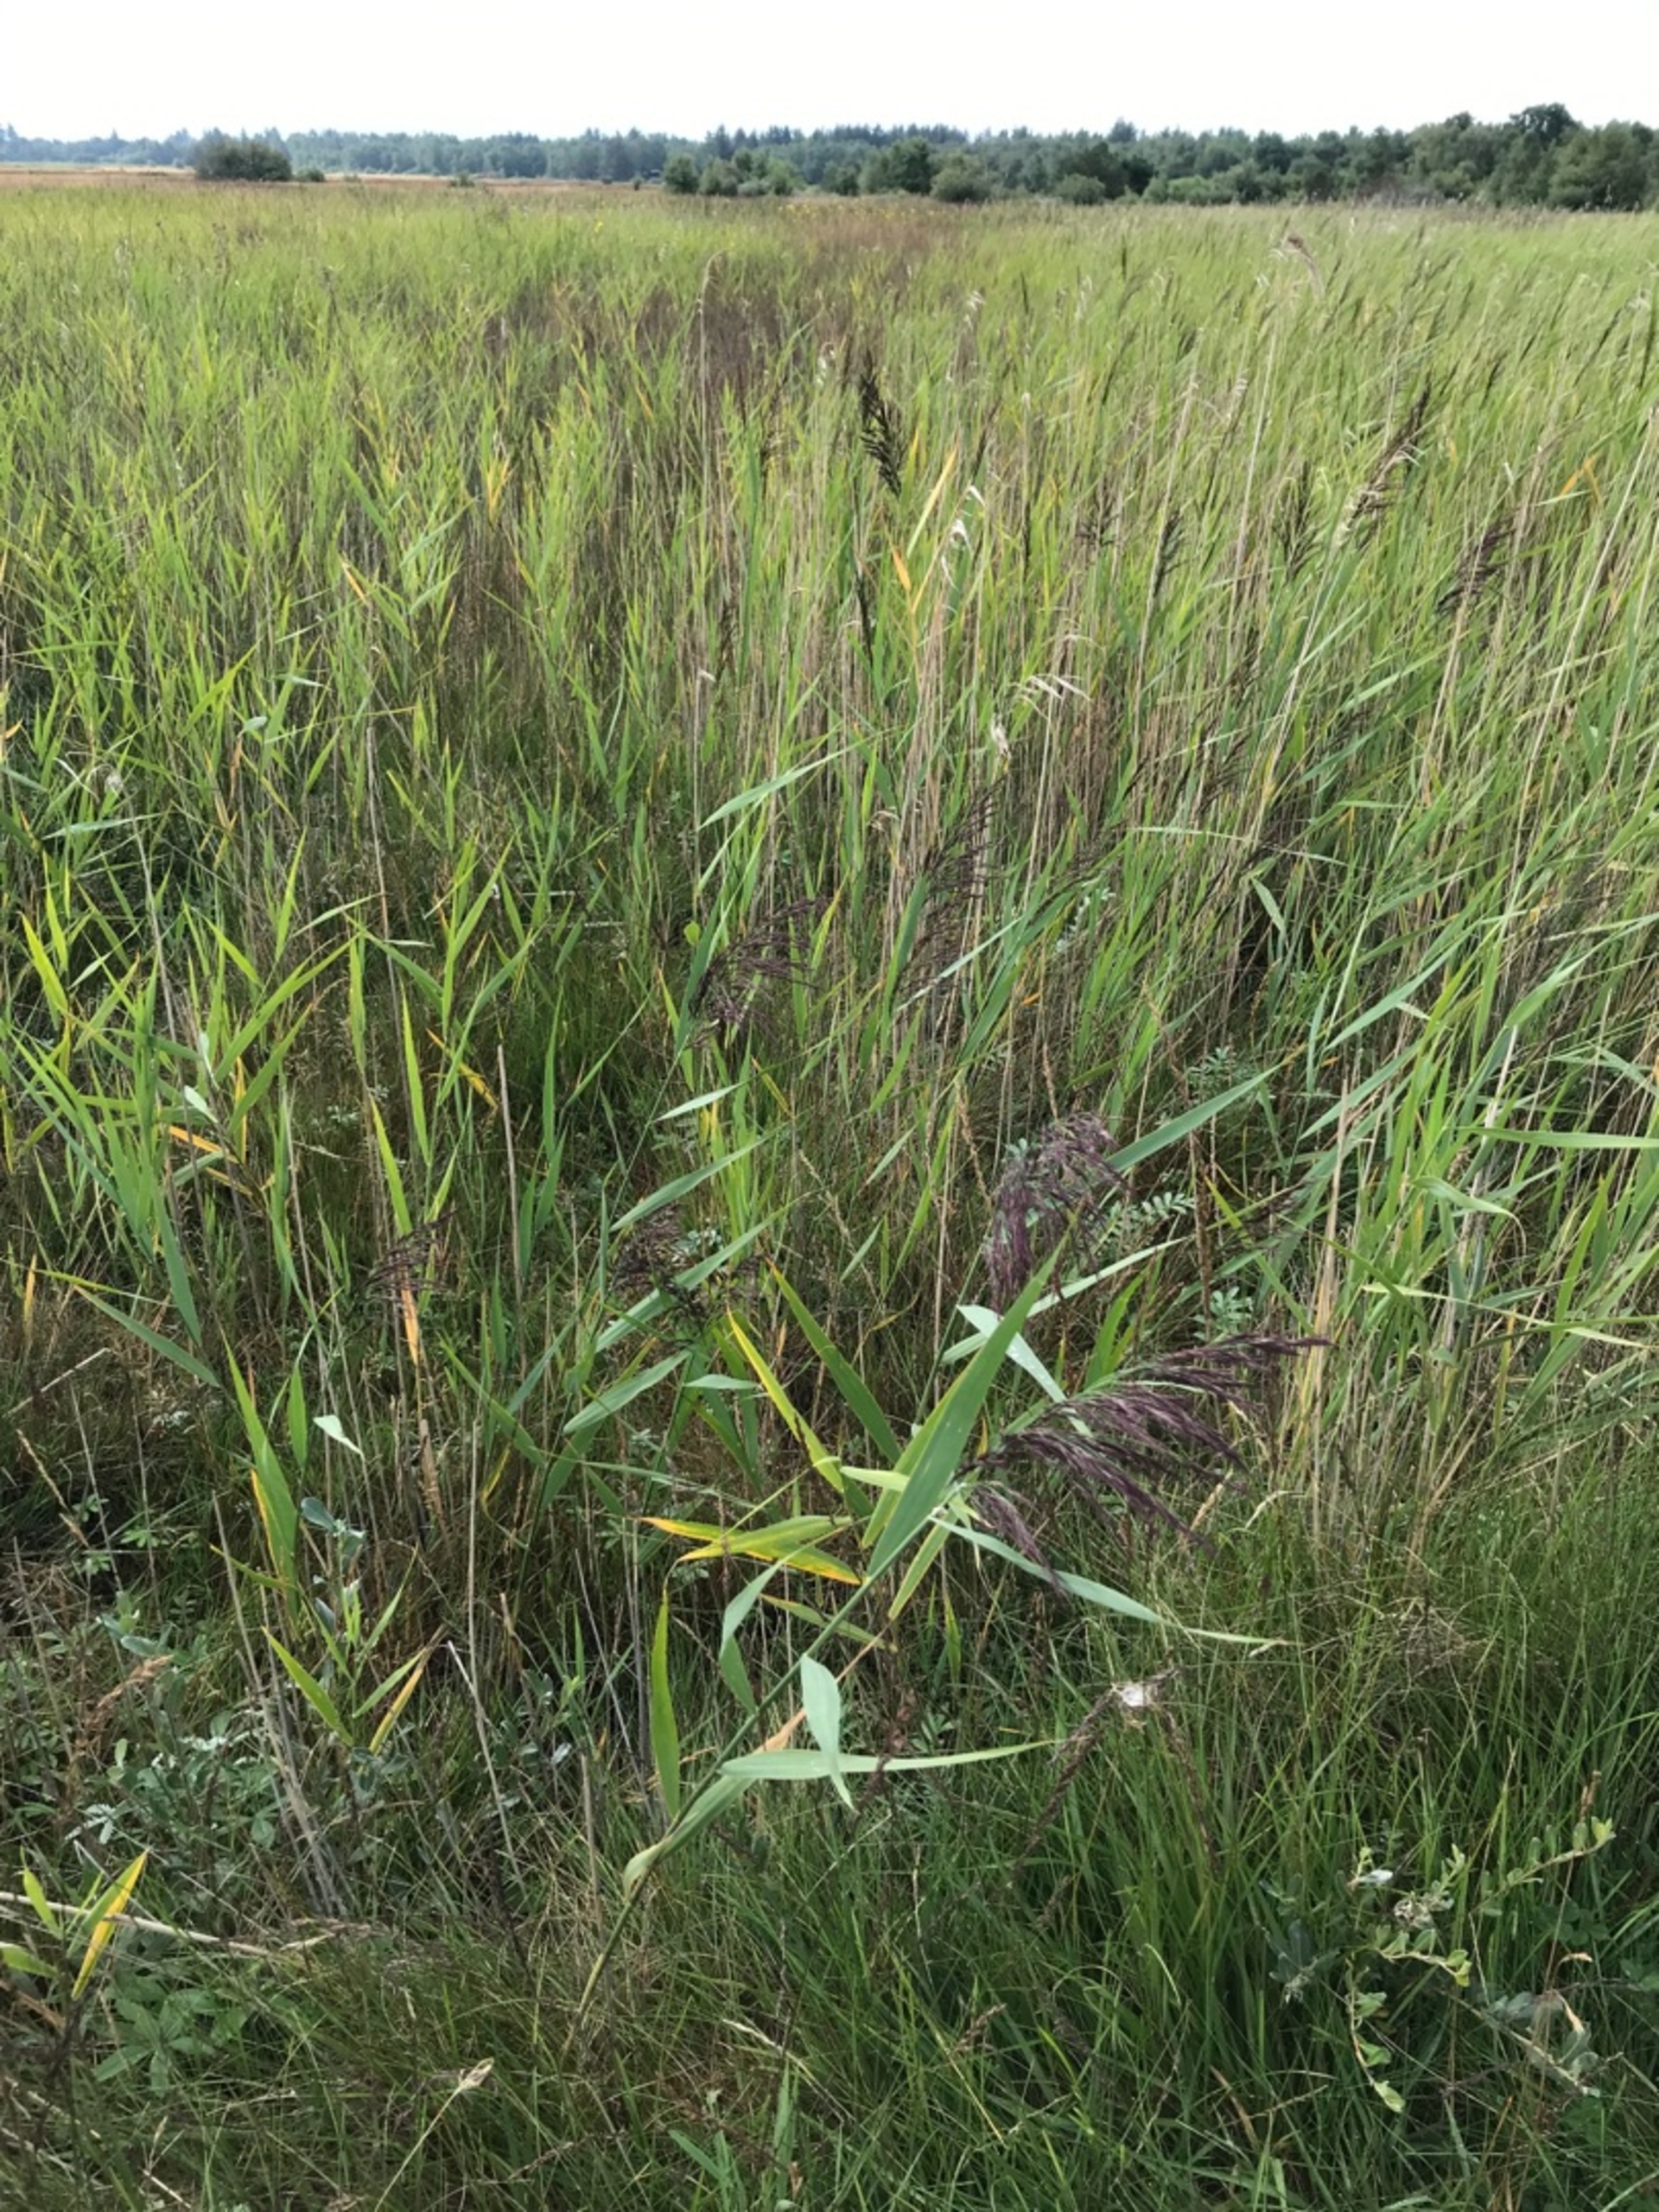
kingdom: Plantae
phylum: Tracheophyta
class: Liliopsida
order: Poales
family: Poaceae
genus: Phragmites
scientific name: Phragmites australis
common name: Tagrør
